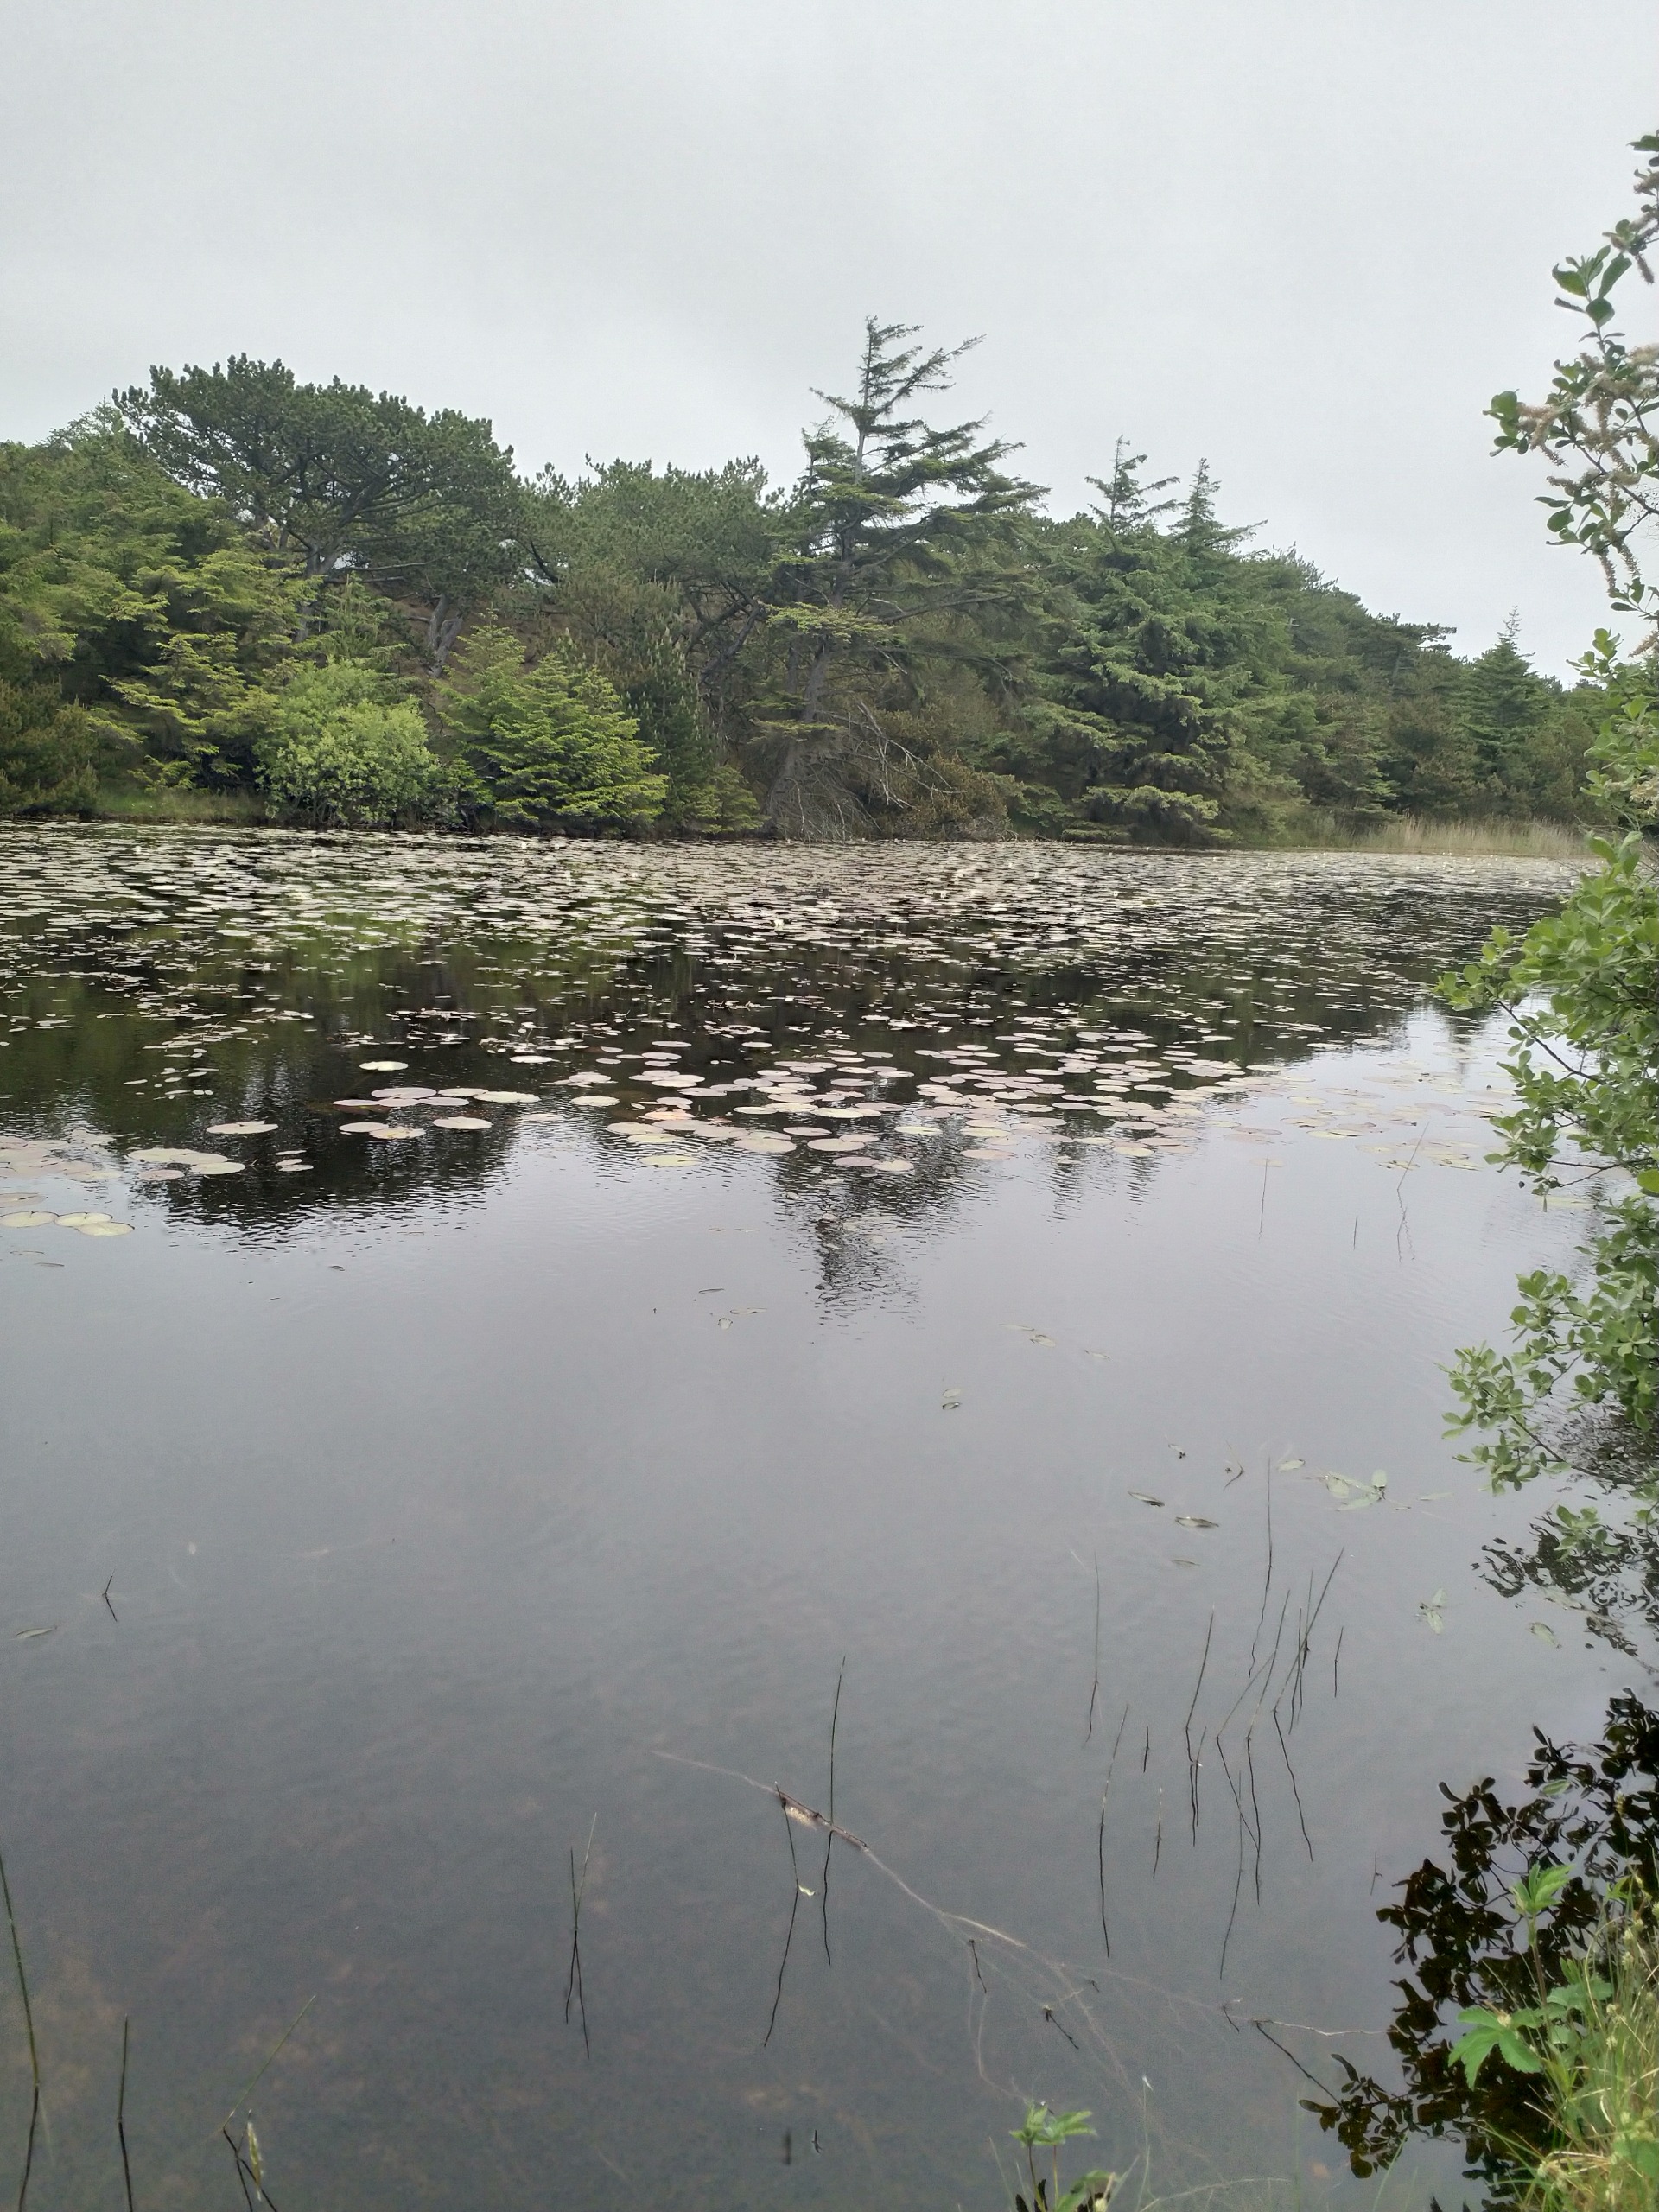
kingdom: Plantae
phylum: Tracheophyta
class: Magnoliopsida
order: Nymphaeales
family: Nymphaeaceae
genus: Nymphaea
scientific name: Nymphaea alba
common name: Hvid åkande
